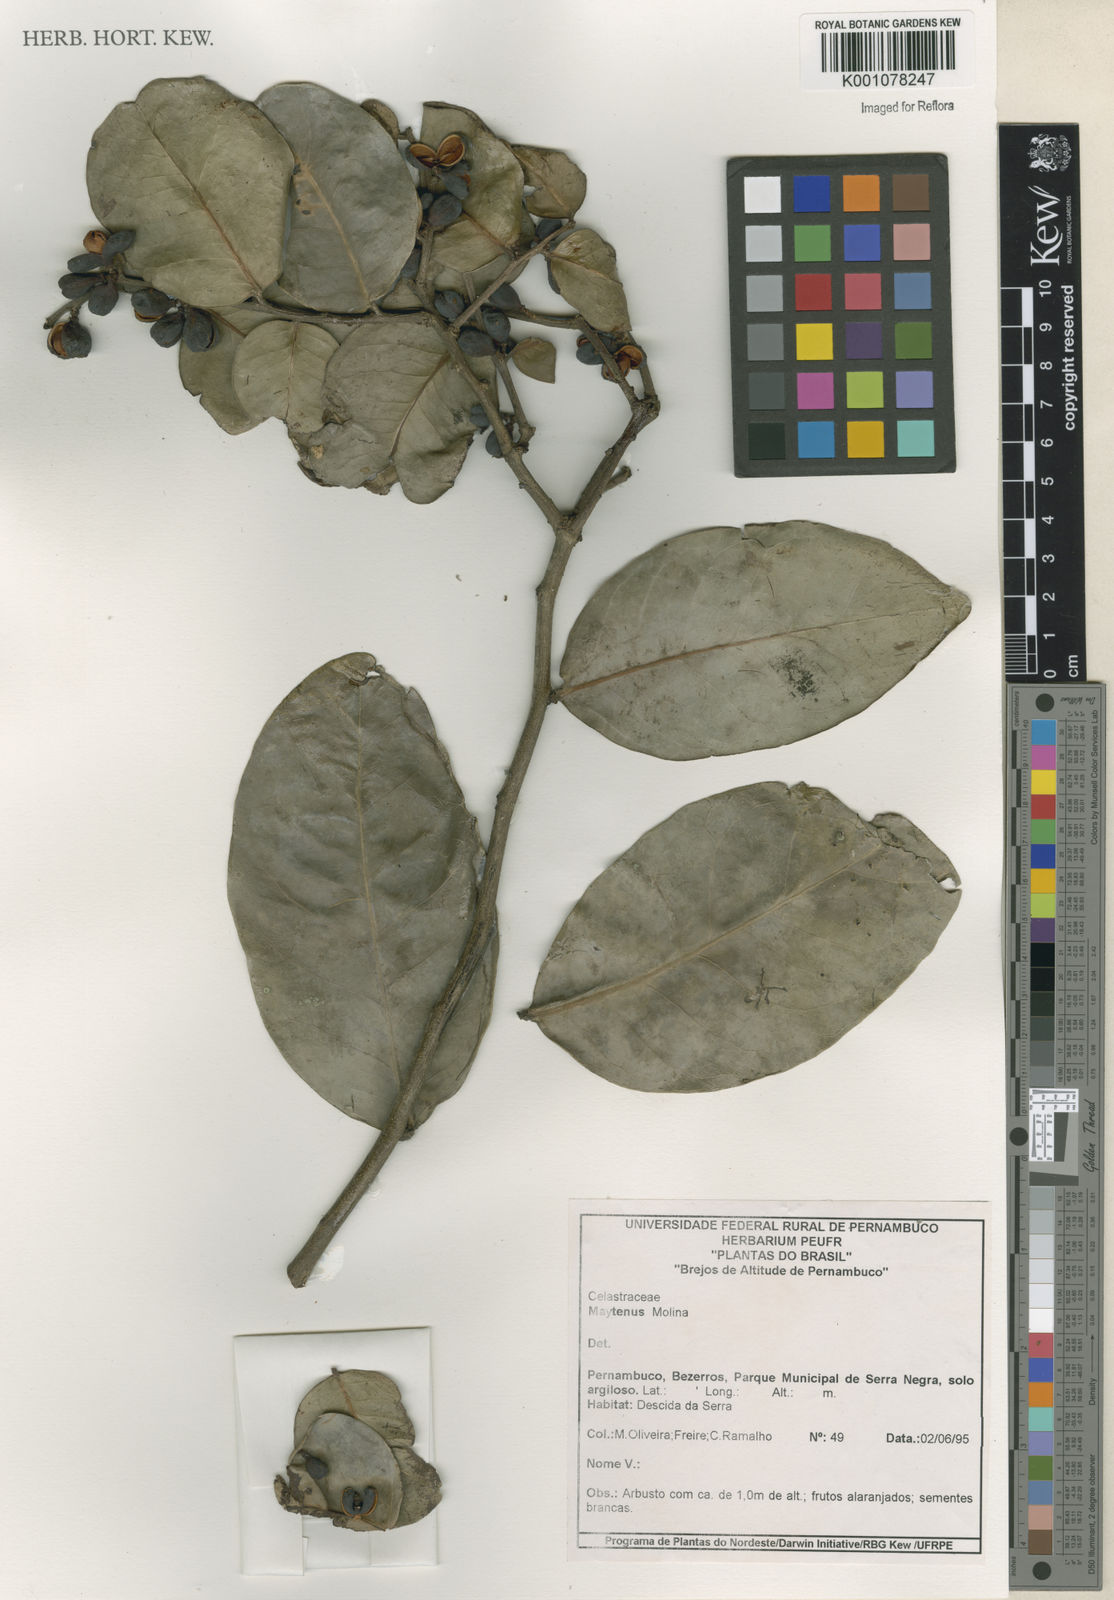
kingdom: Plantae
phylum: Tracheophyta
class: Magnoliopsida
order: Celastrales
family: Celastraceae
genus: Maytenus
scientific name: Maytenus
